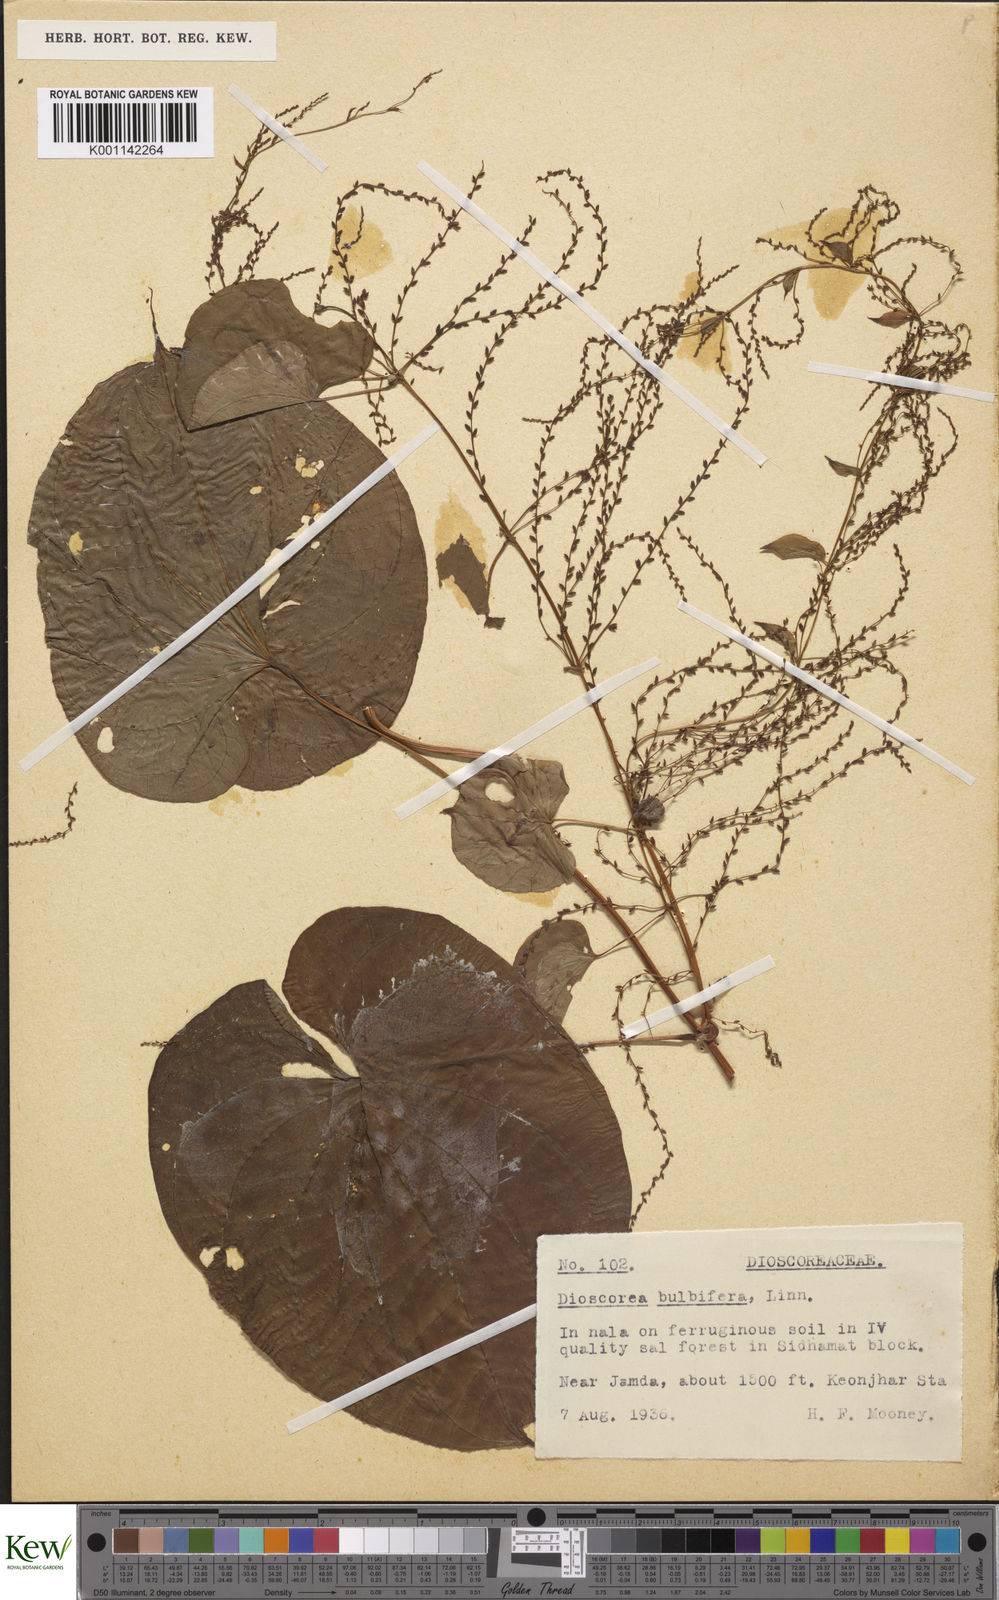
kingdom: Plantae
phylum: Tracheophyta
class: Liliopsida
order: Dioscoreales
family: Dioscoreaceae
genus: Dioscorea
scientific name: Dioscorea bulbifera
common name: Air yam
